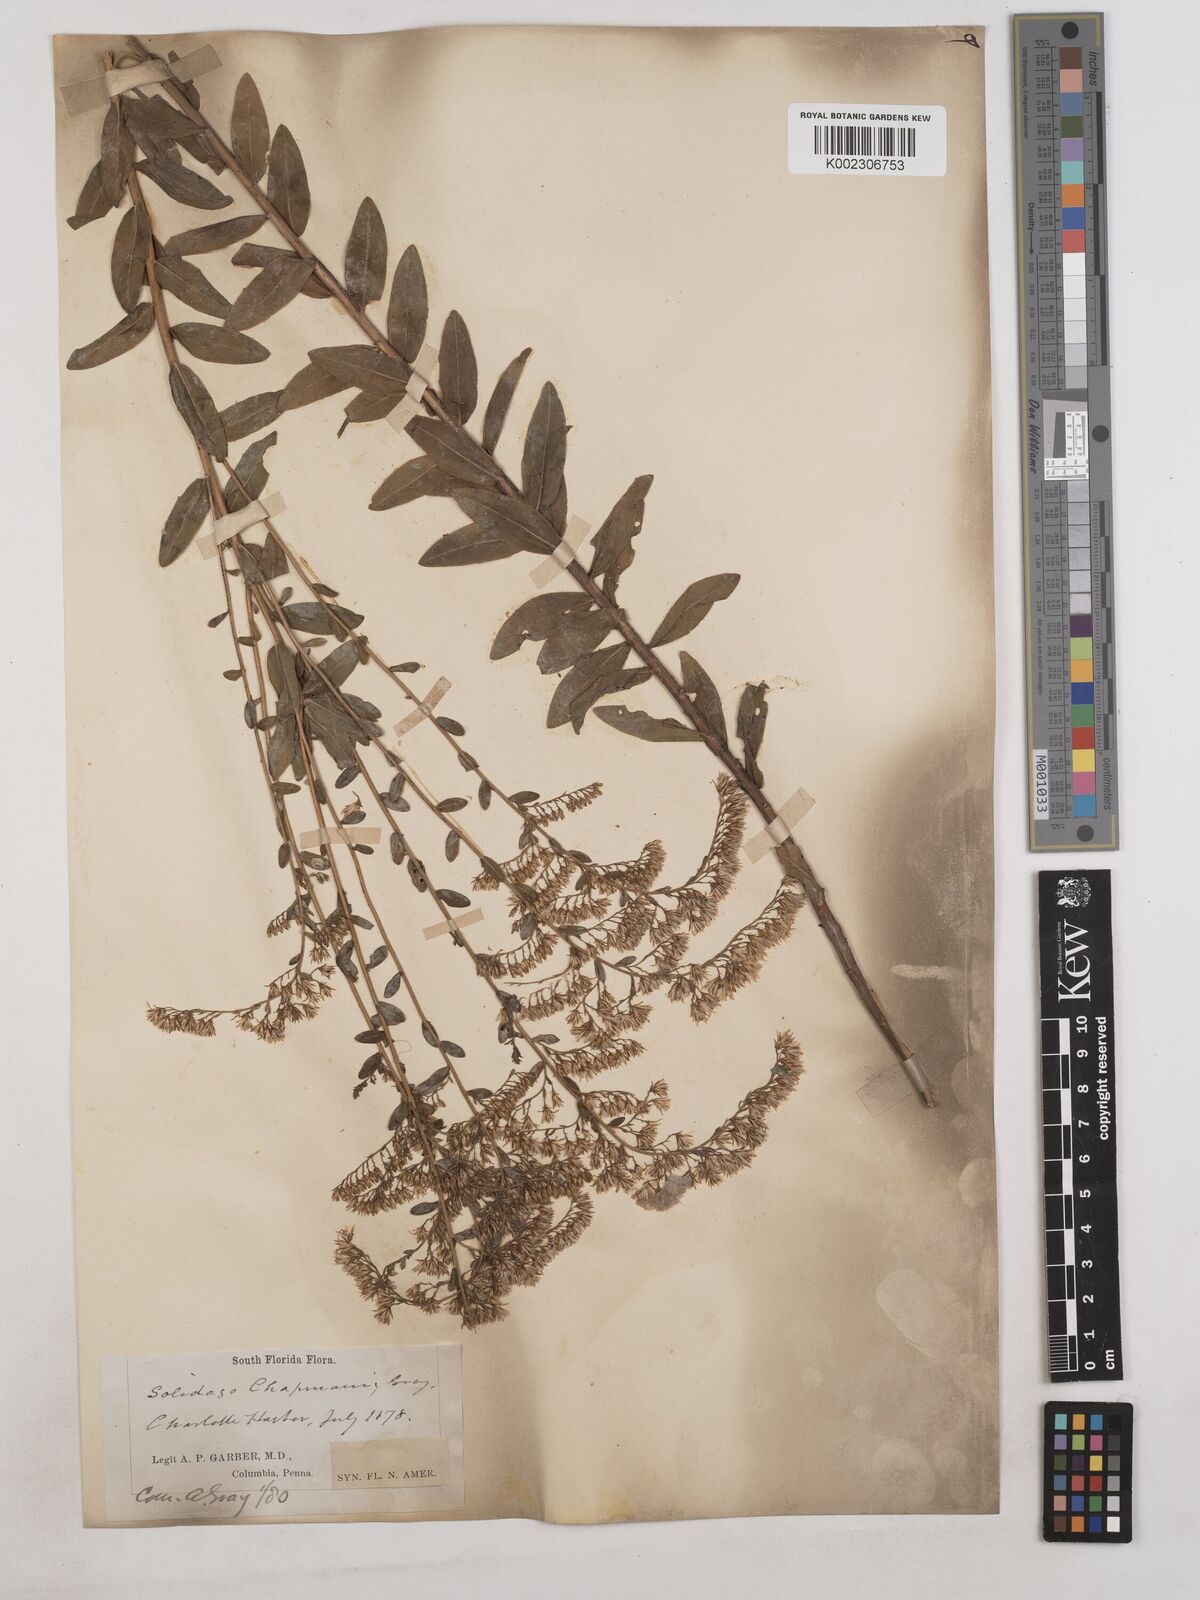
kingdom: Plantae
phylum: Tracheophyta
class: Magnoliopsida
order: Asterales
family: Asteraceae
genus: Solidago
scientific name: Solidago chapmanii
